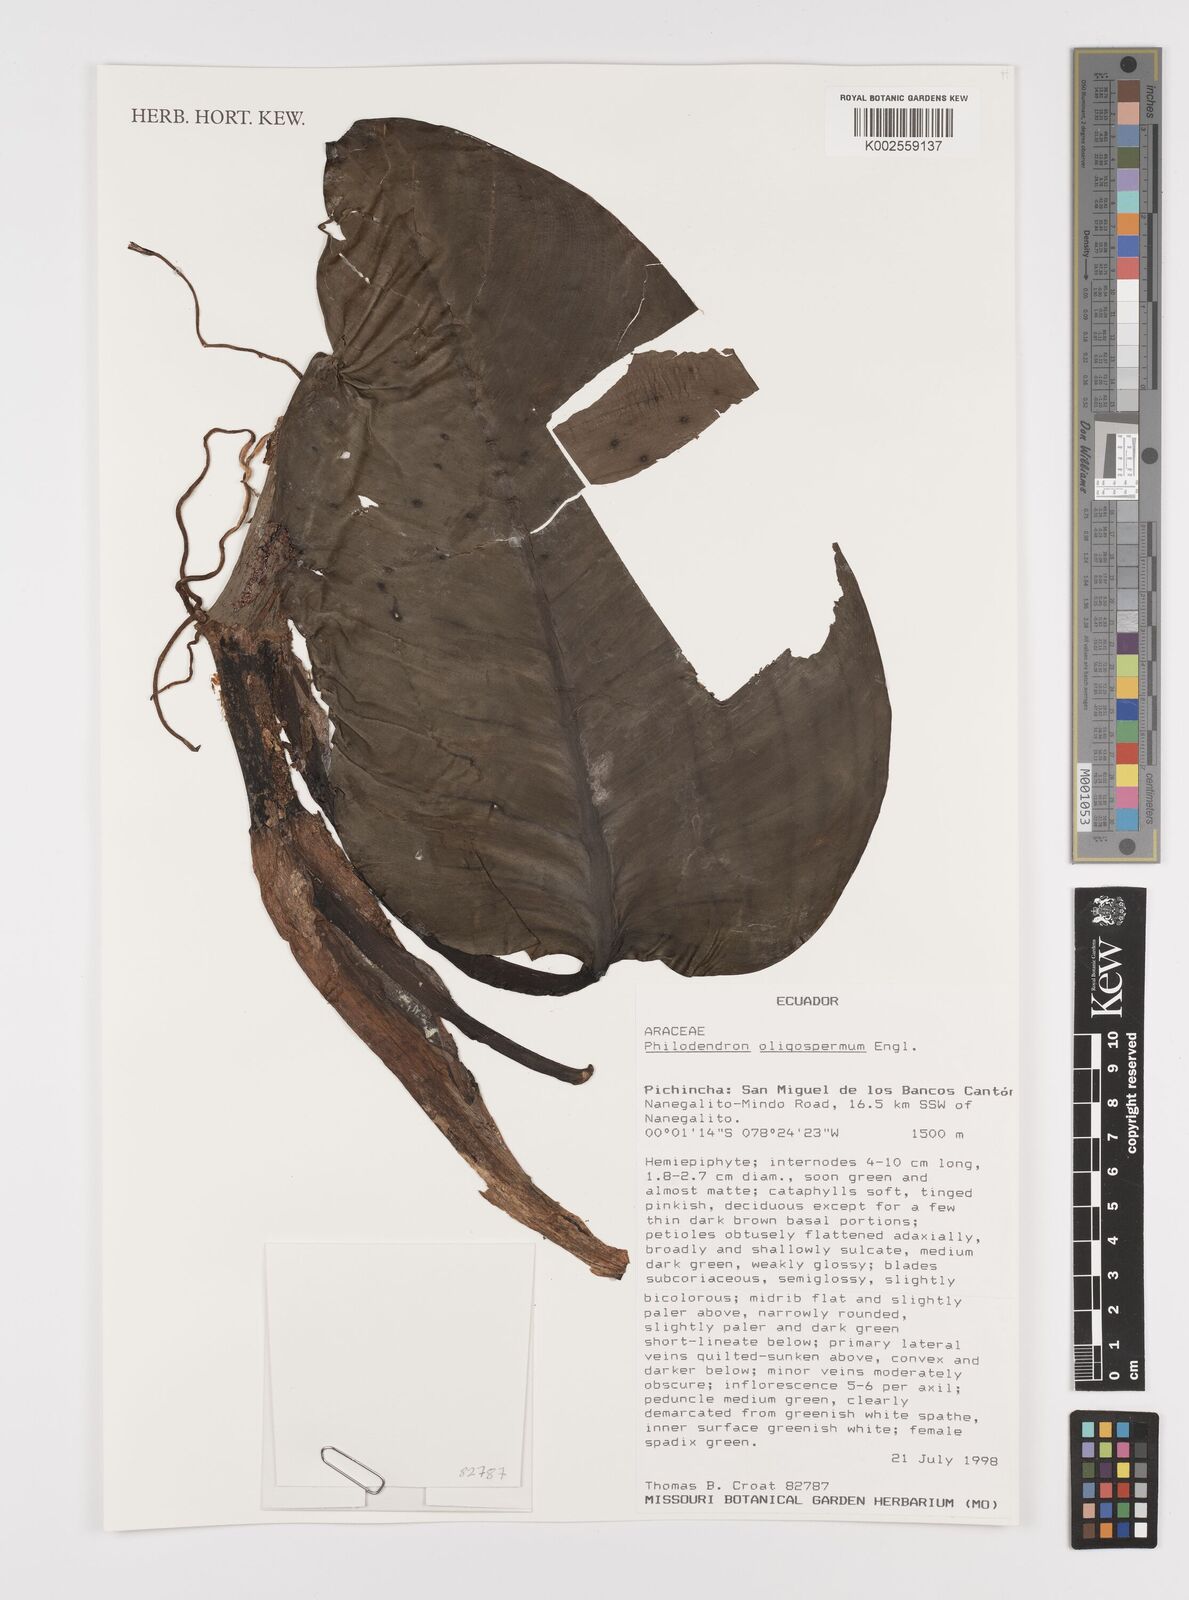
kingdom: Plantae
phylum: Tracheophyta
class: Liliopsida
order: Alismatales
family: Araceae
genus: Philodendron
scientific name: Philodendron oligospermum
